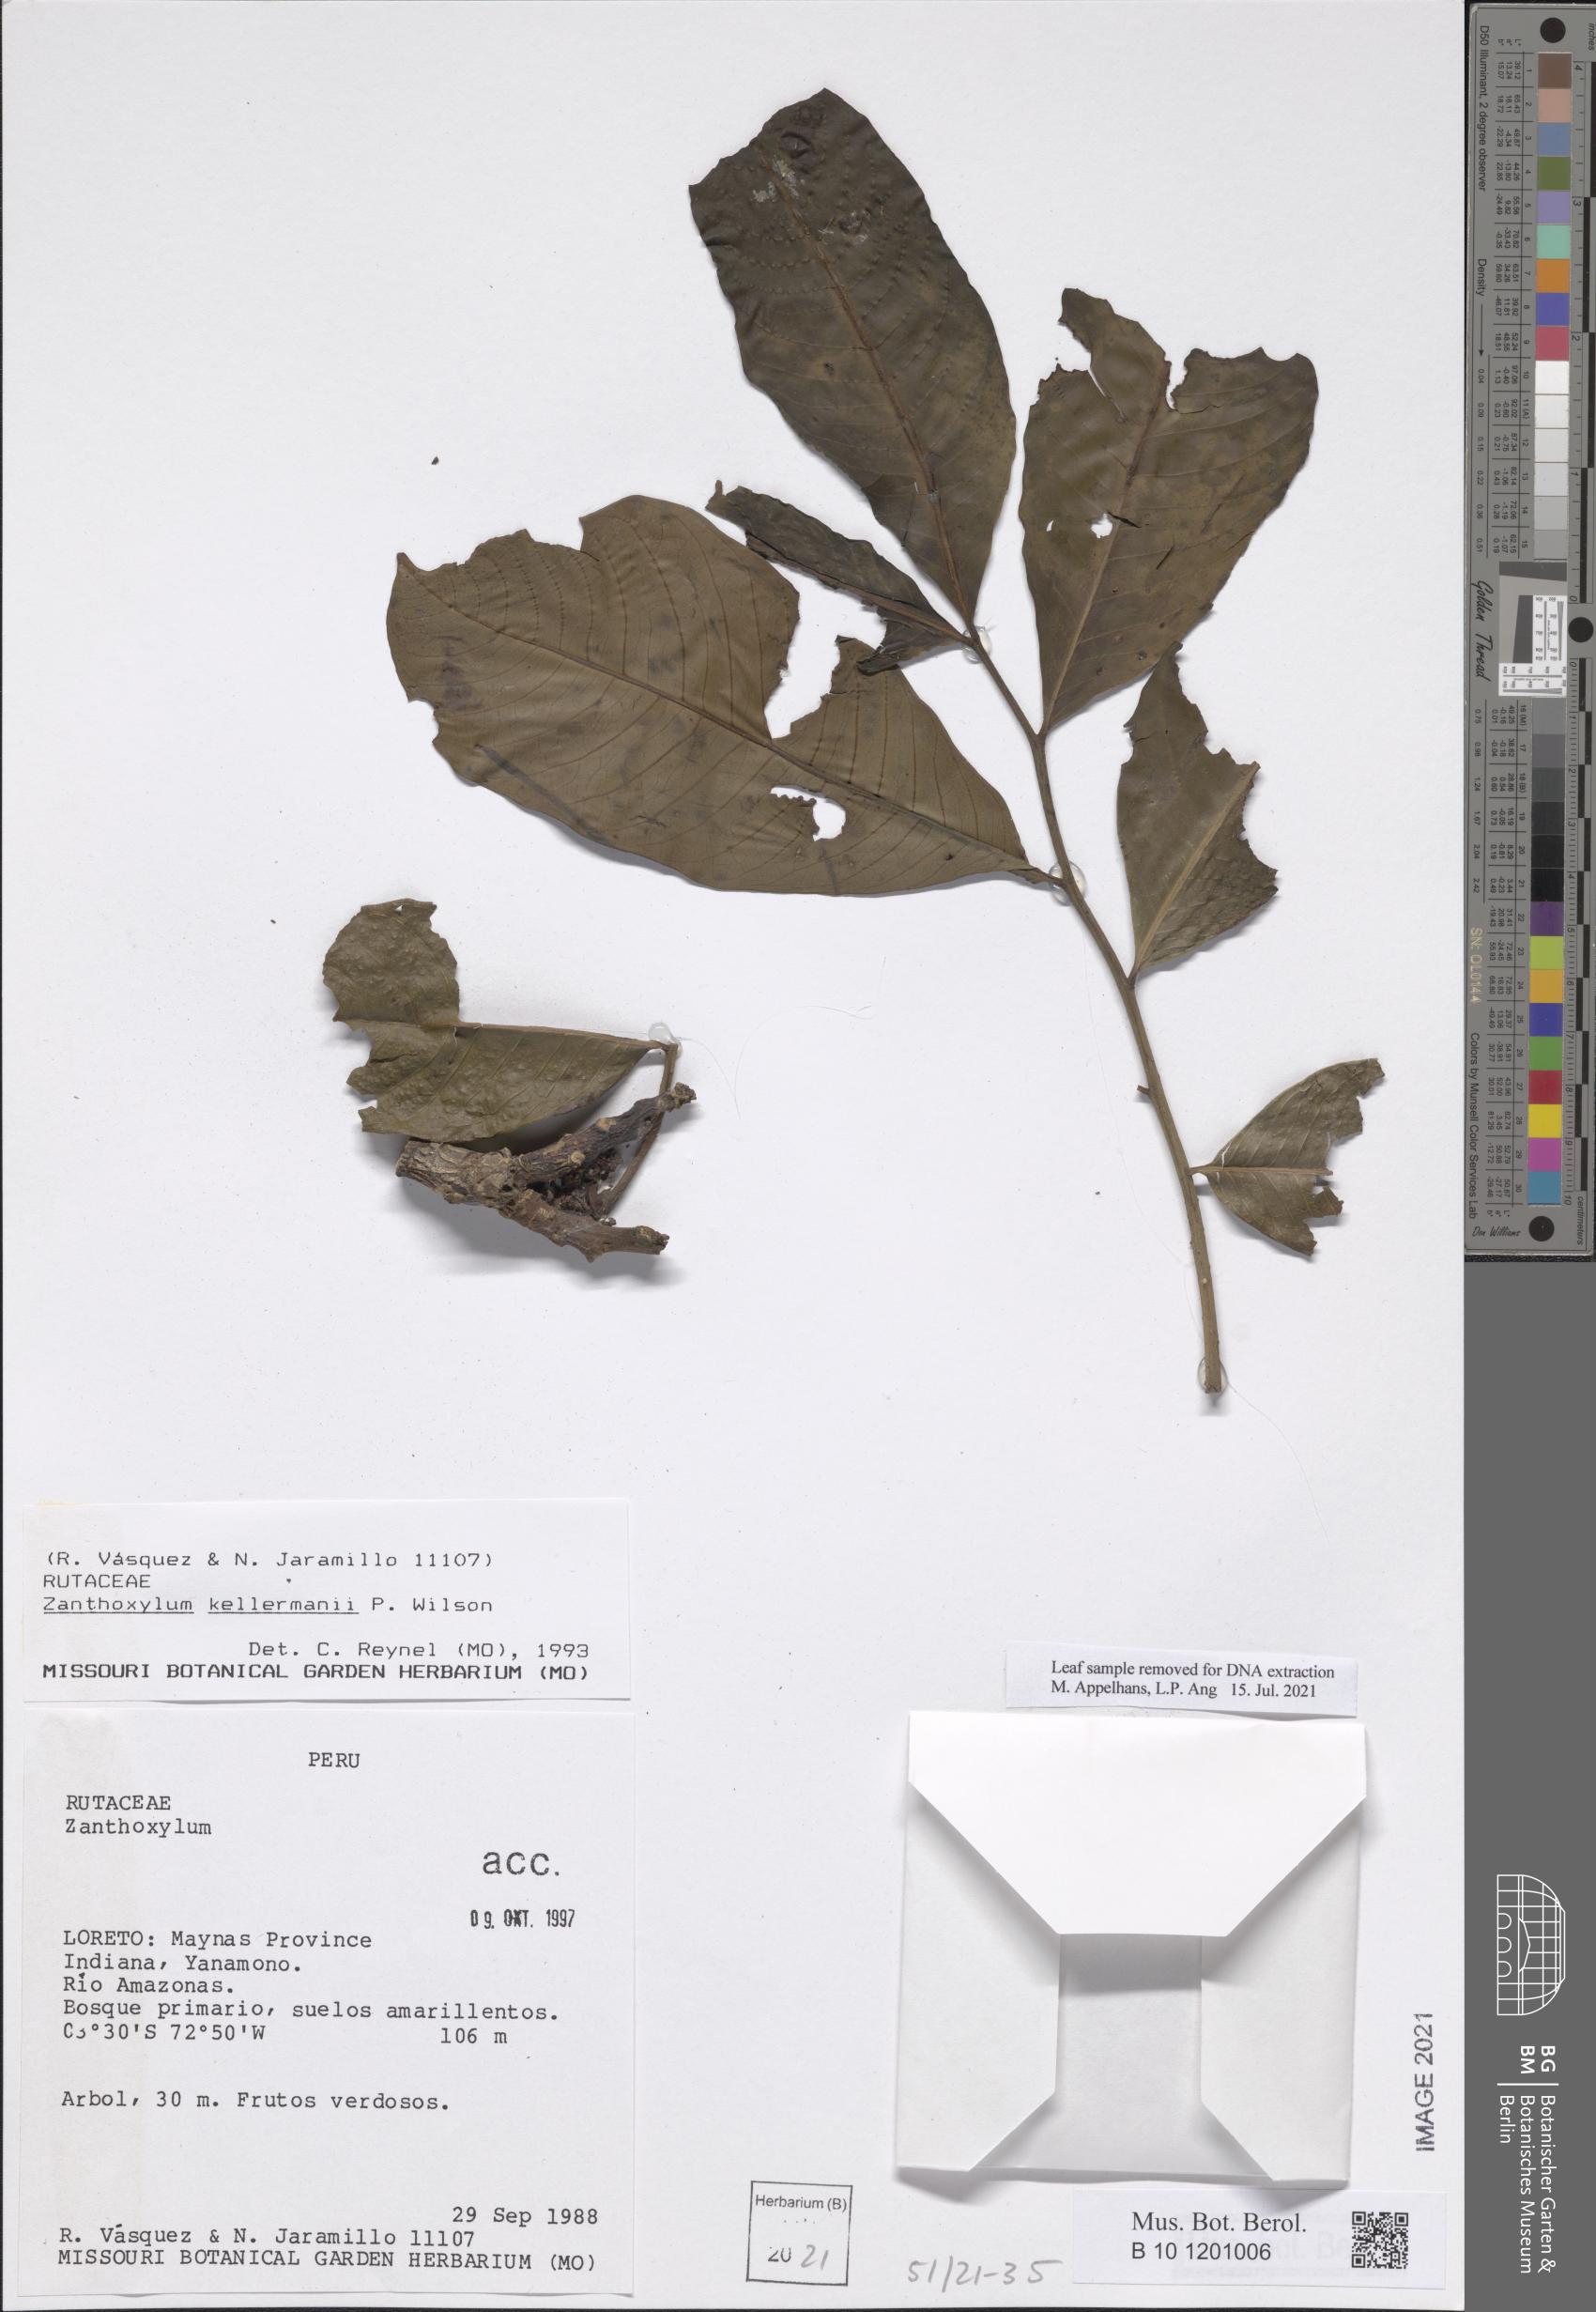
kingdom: Plantae
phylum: Tracheophyta
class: Magnoliopsida
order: Sapindales
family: Rutaceae
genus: Zanthoxylum
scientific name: Zanthoxylum riedelianum
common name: White copal
